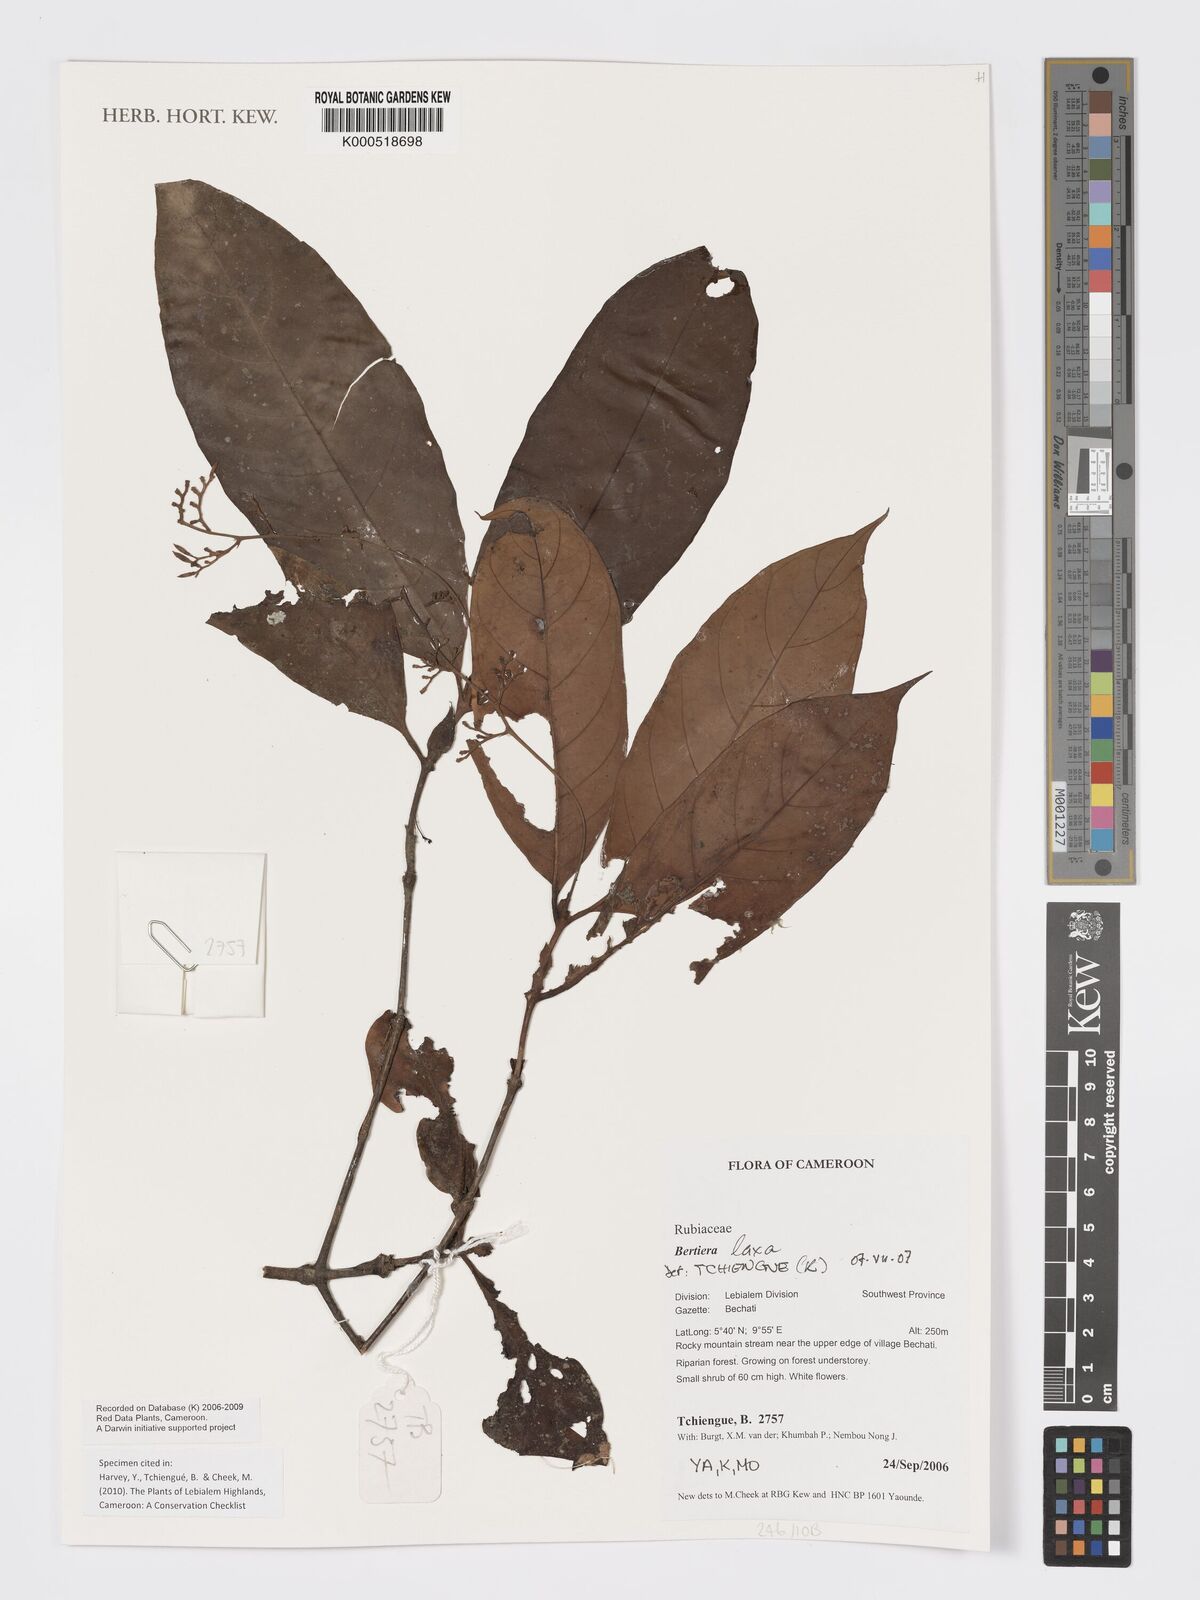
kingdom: Plantae
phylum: Tracheophyta
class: Magnoliopsida
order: Gentianales
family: Rubiaceae
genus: Bertiera
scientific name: Bertiera laxa
